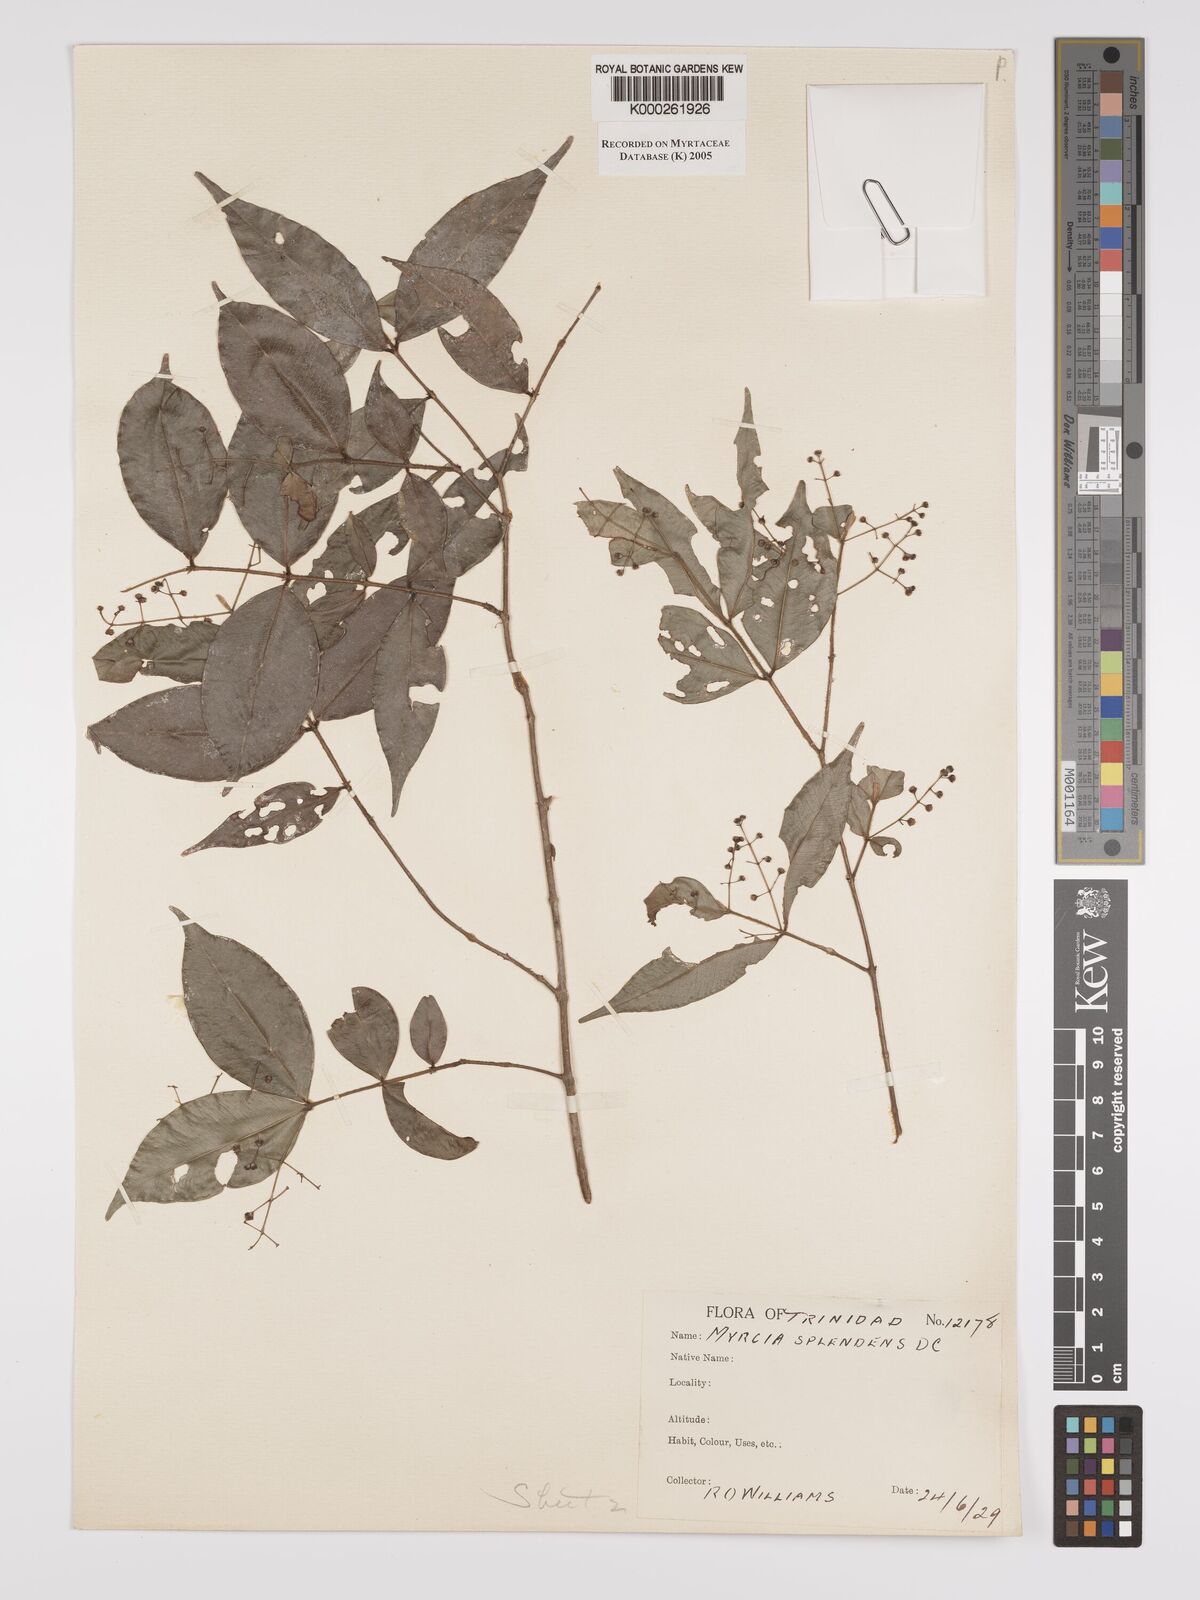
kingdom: Plantae
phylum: Tracheophyta
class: Magnoliopsida
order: Myrtales
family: Myrtaceae
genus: Myrcia
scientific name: Myrcia splendens
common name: Surinam cherry
